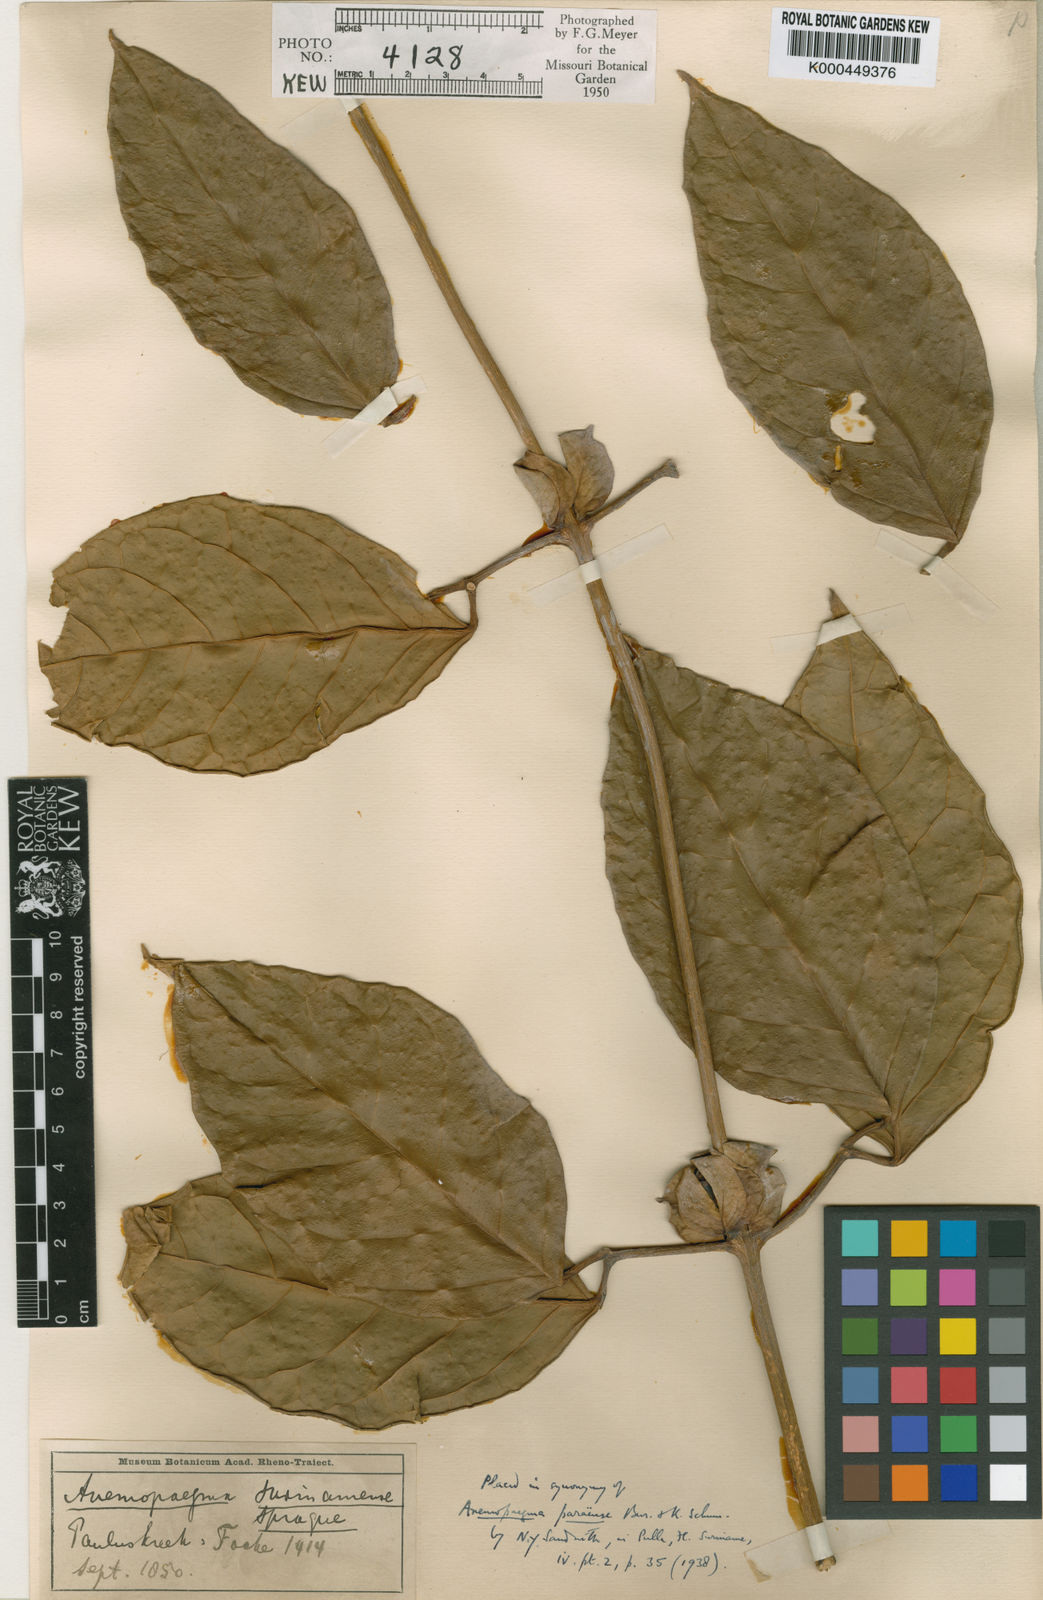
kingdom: Plantae
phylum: Tracheophyta
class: Magnoliopsida
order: Lamiales
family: Bignoniaceae
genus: Anemopaegma
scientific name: Anemopaegma chrysoleucum
